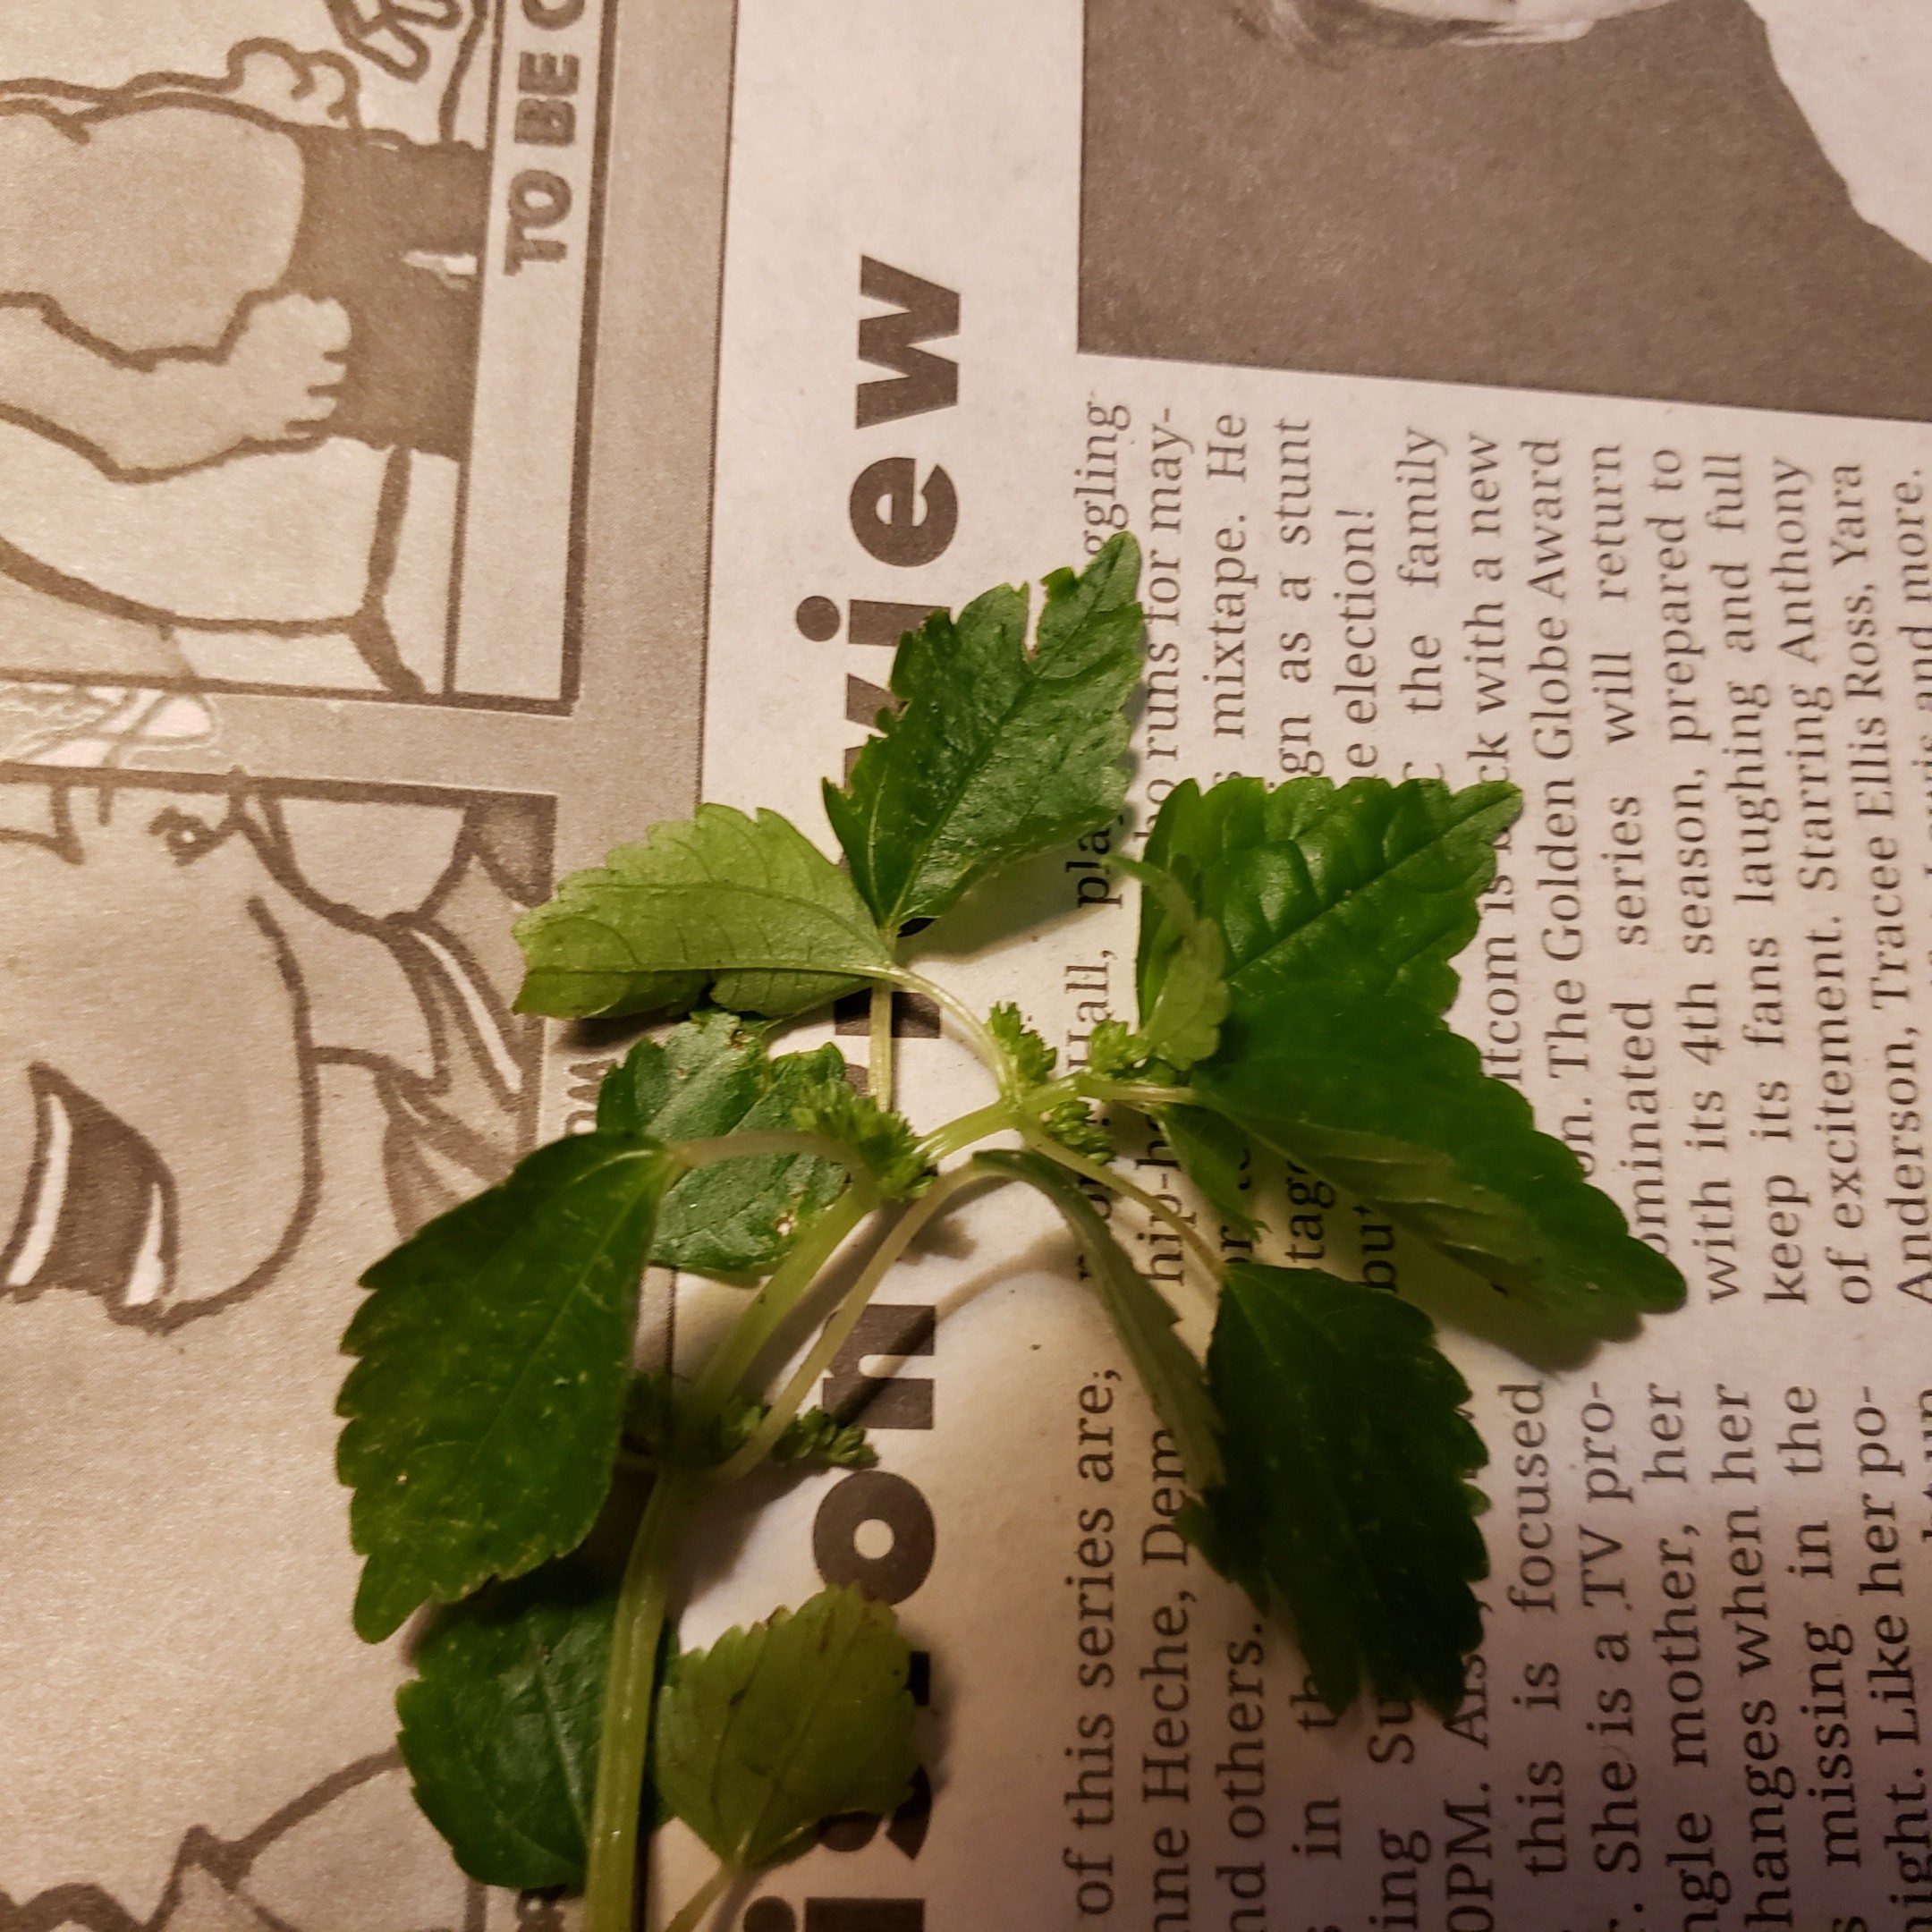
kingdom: Plantae
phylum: Tracheophyta
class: Magnoliopsida
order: Rosales
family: Urticaceae
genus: Pilea
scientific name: Pilea pumila
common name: Clearweed
